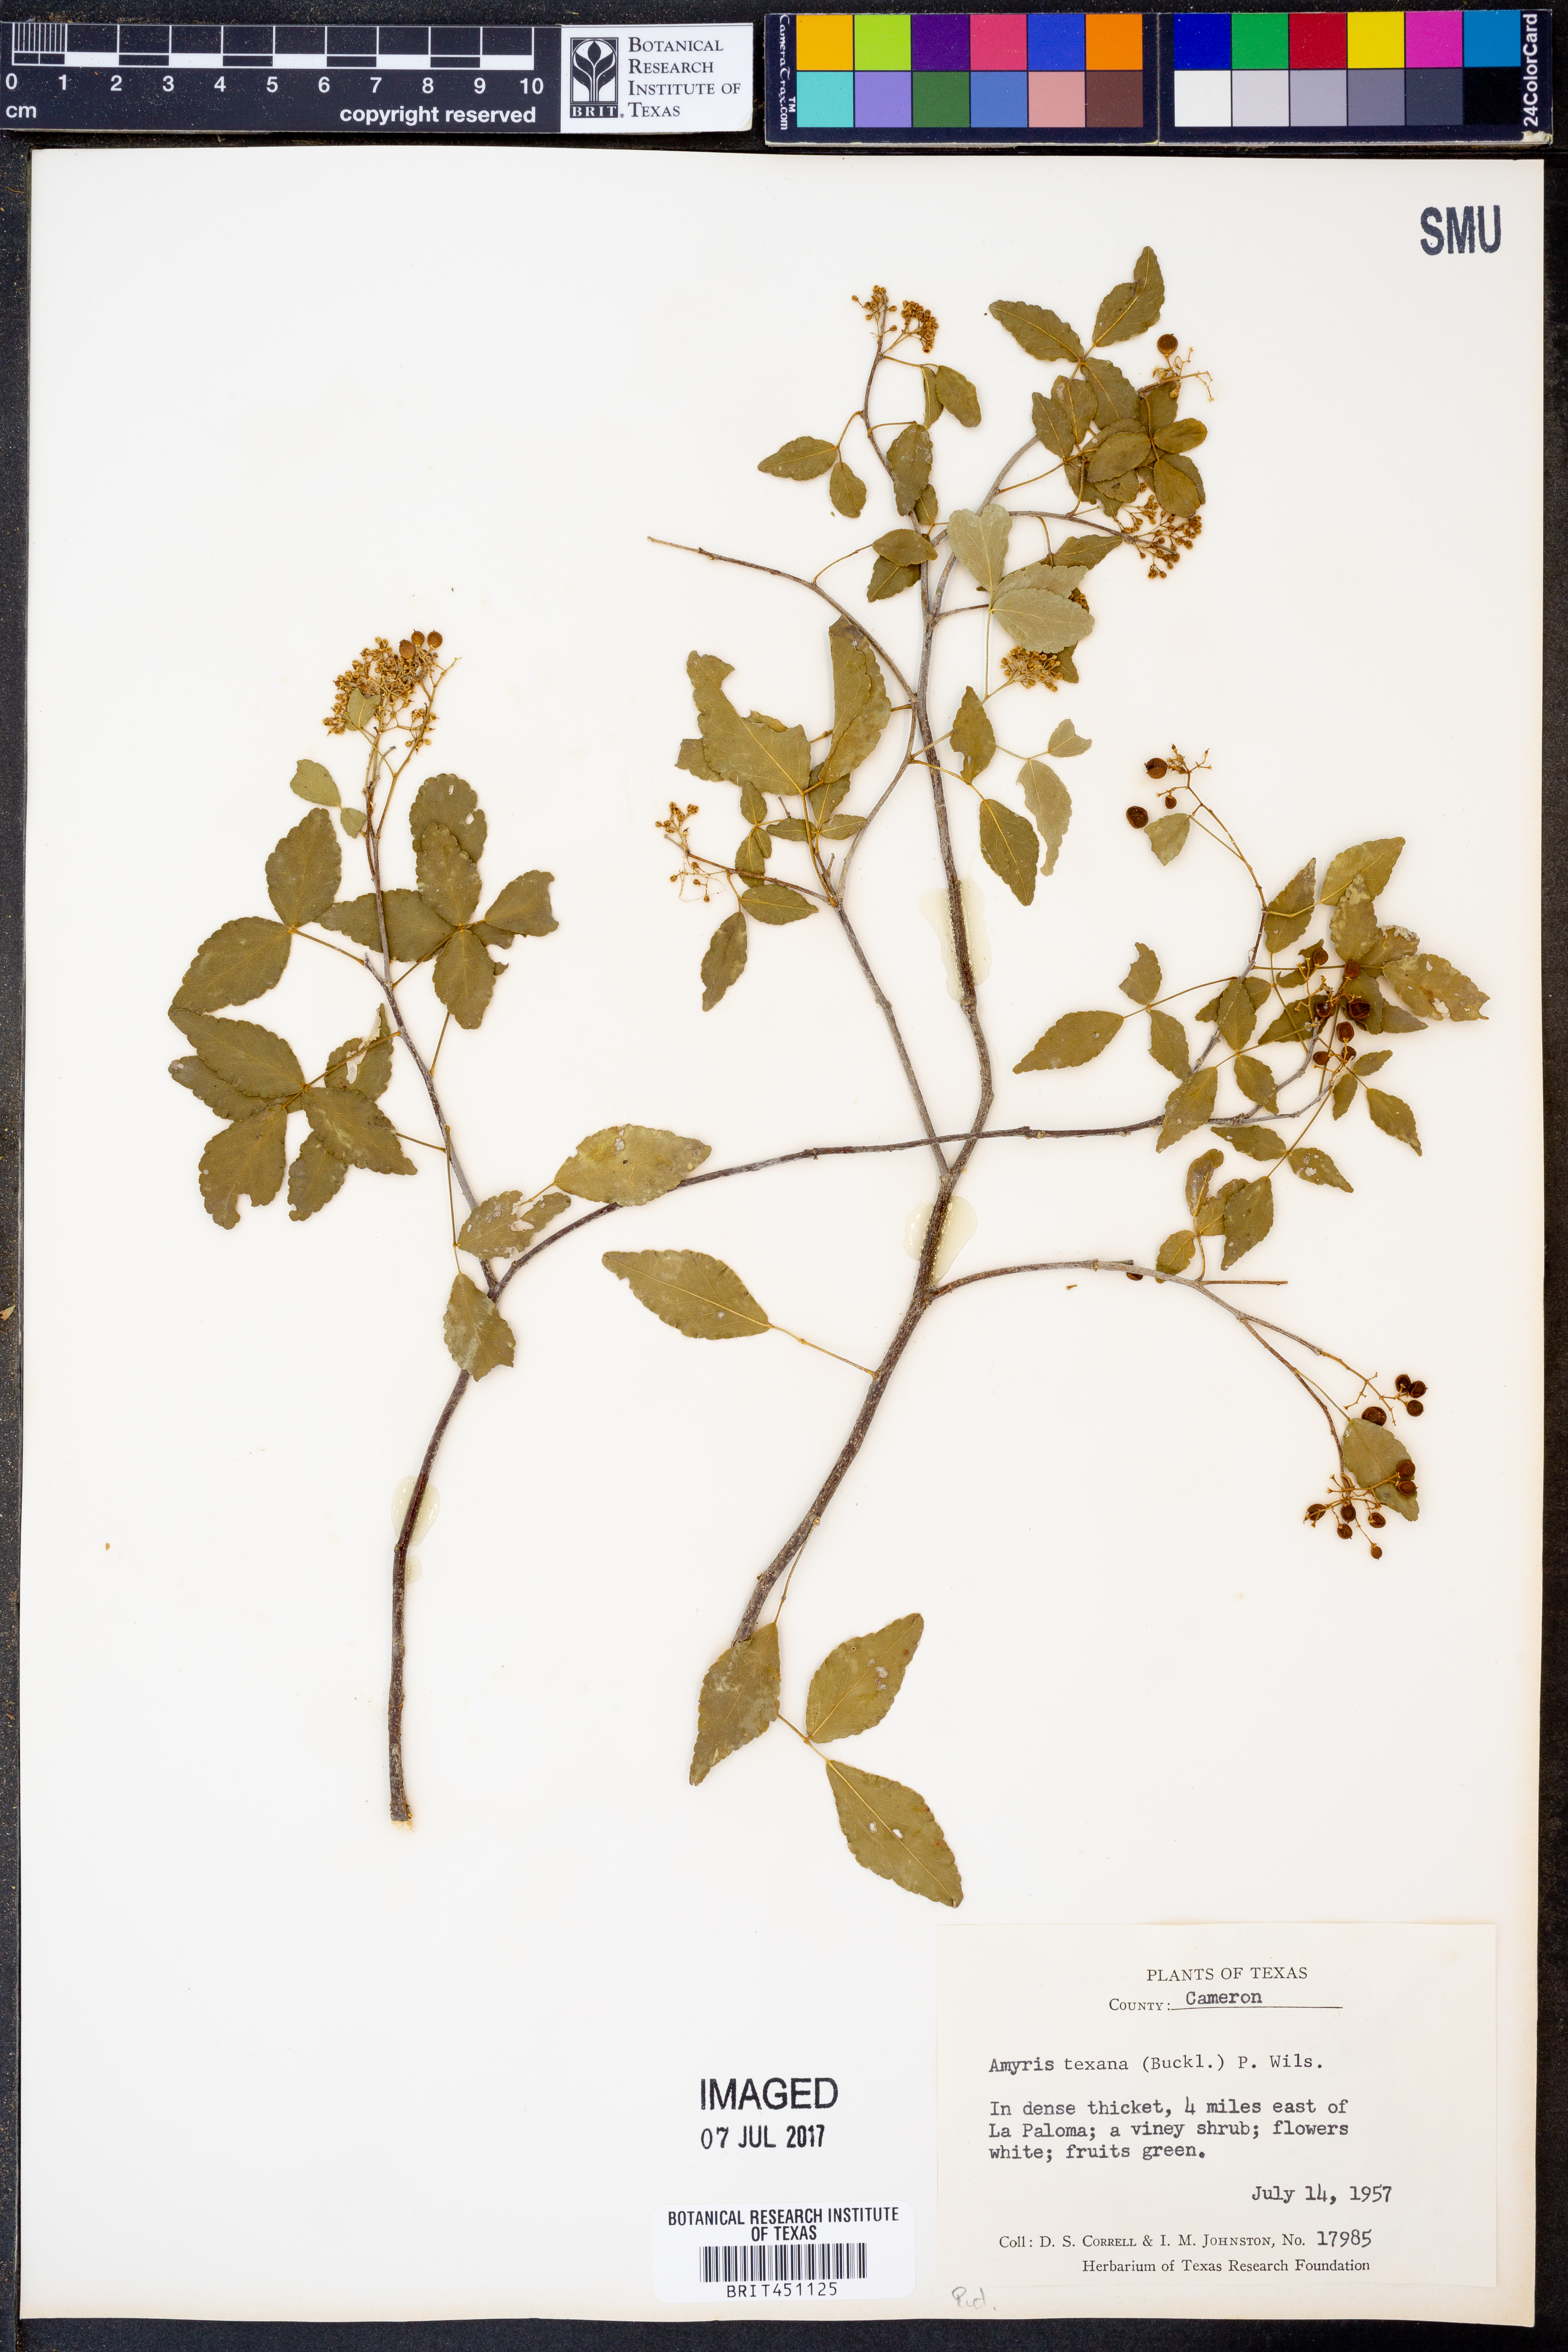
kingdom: Plantae
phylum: Tracheophyta
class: Magnoliopsida
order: Sapindales
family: Rutaceae
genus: Amyris
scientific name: Amyris texana
